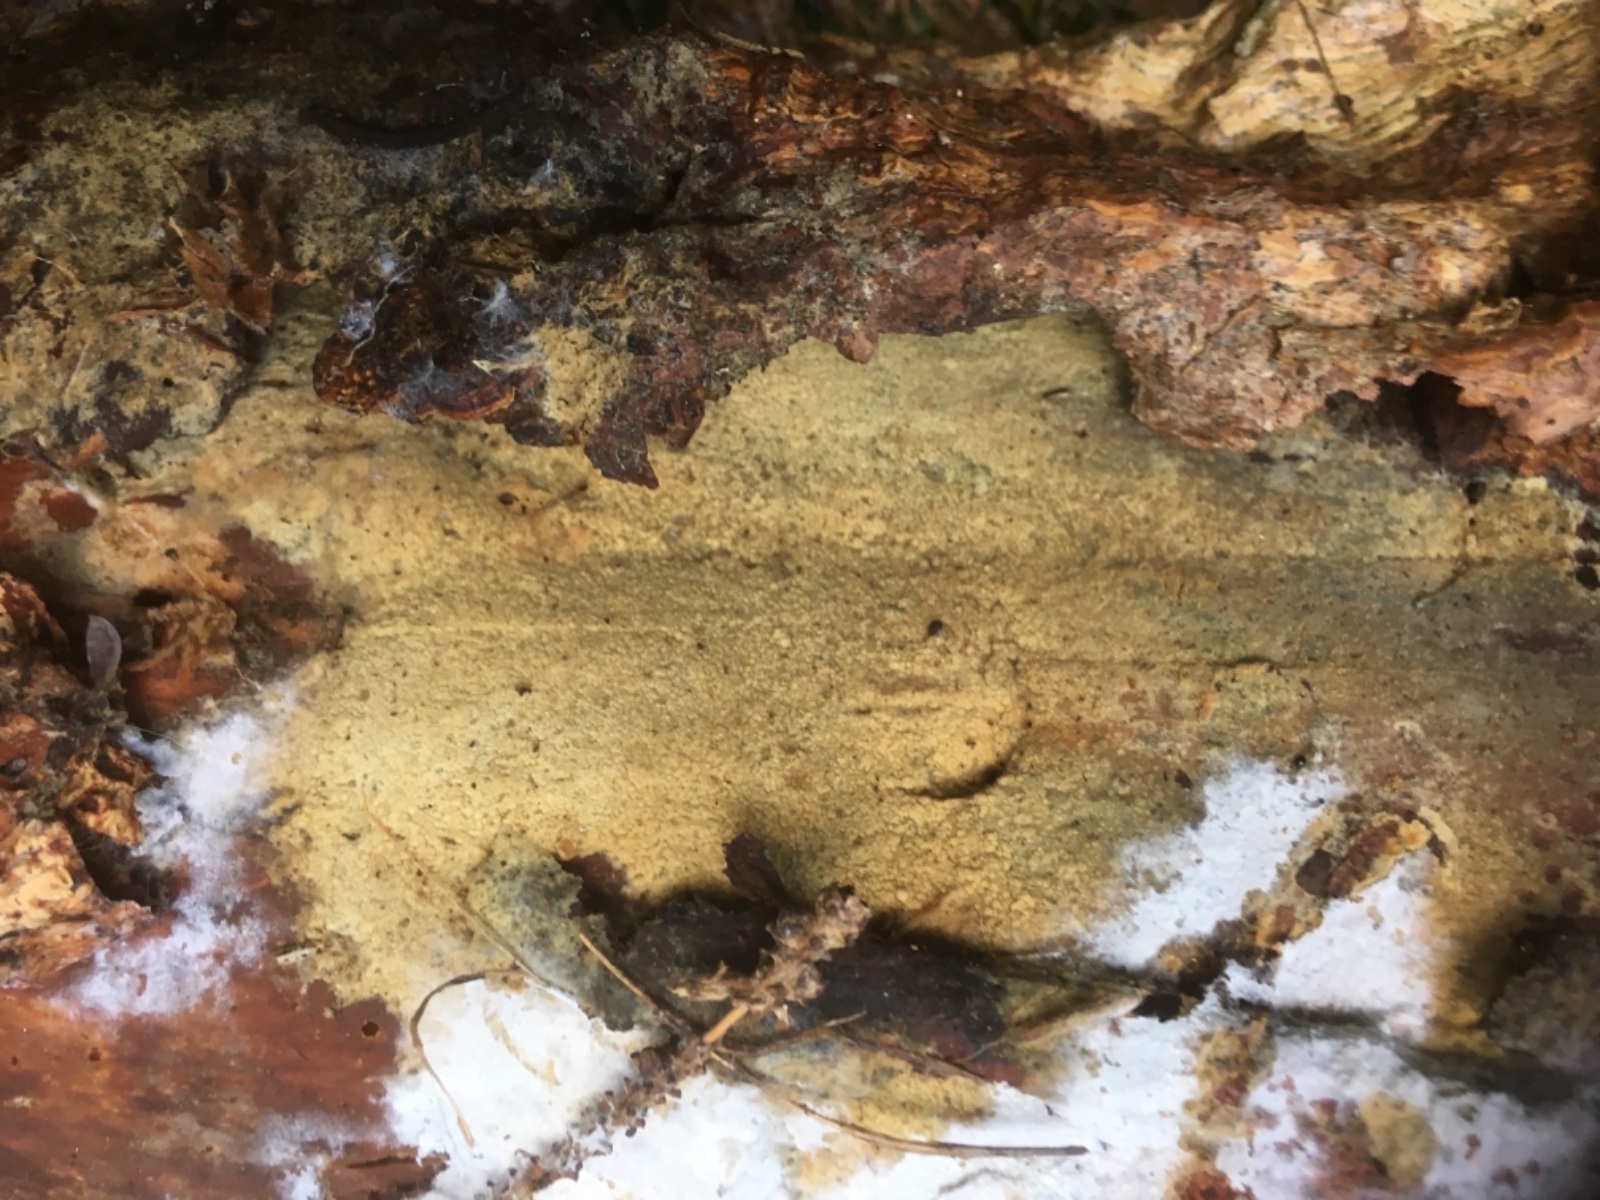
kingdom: Fungi
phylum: Basidiomycota
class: Agaricomycetes
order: Corticiales
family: Corticiaceae
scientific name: Corticiaceae
